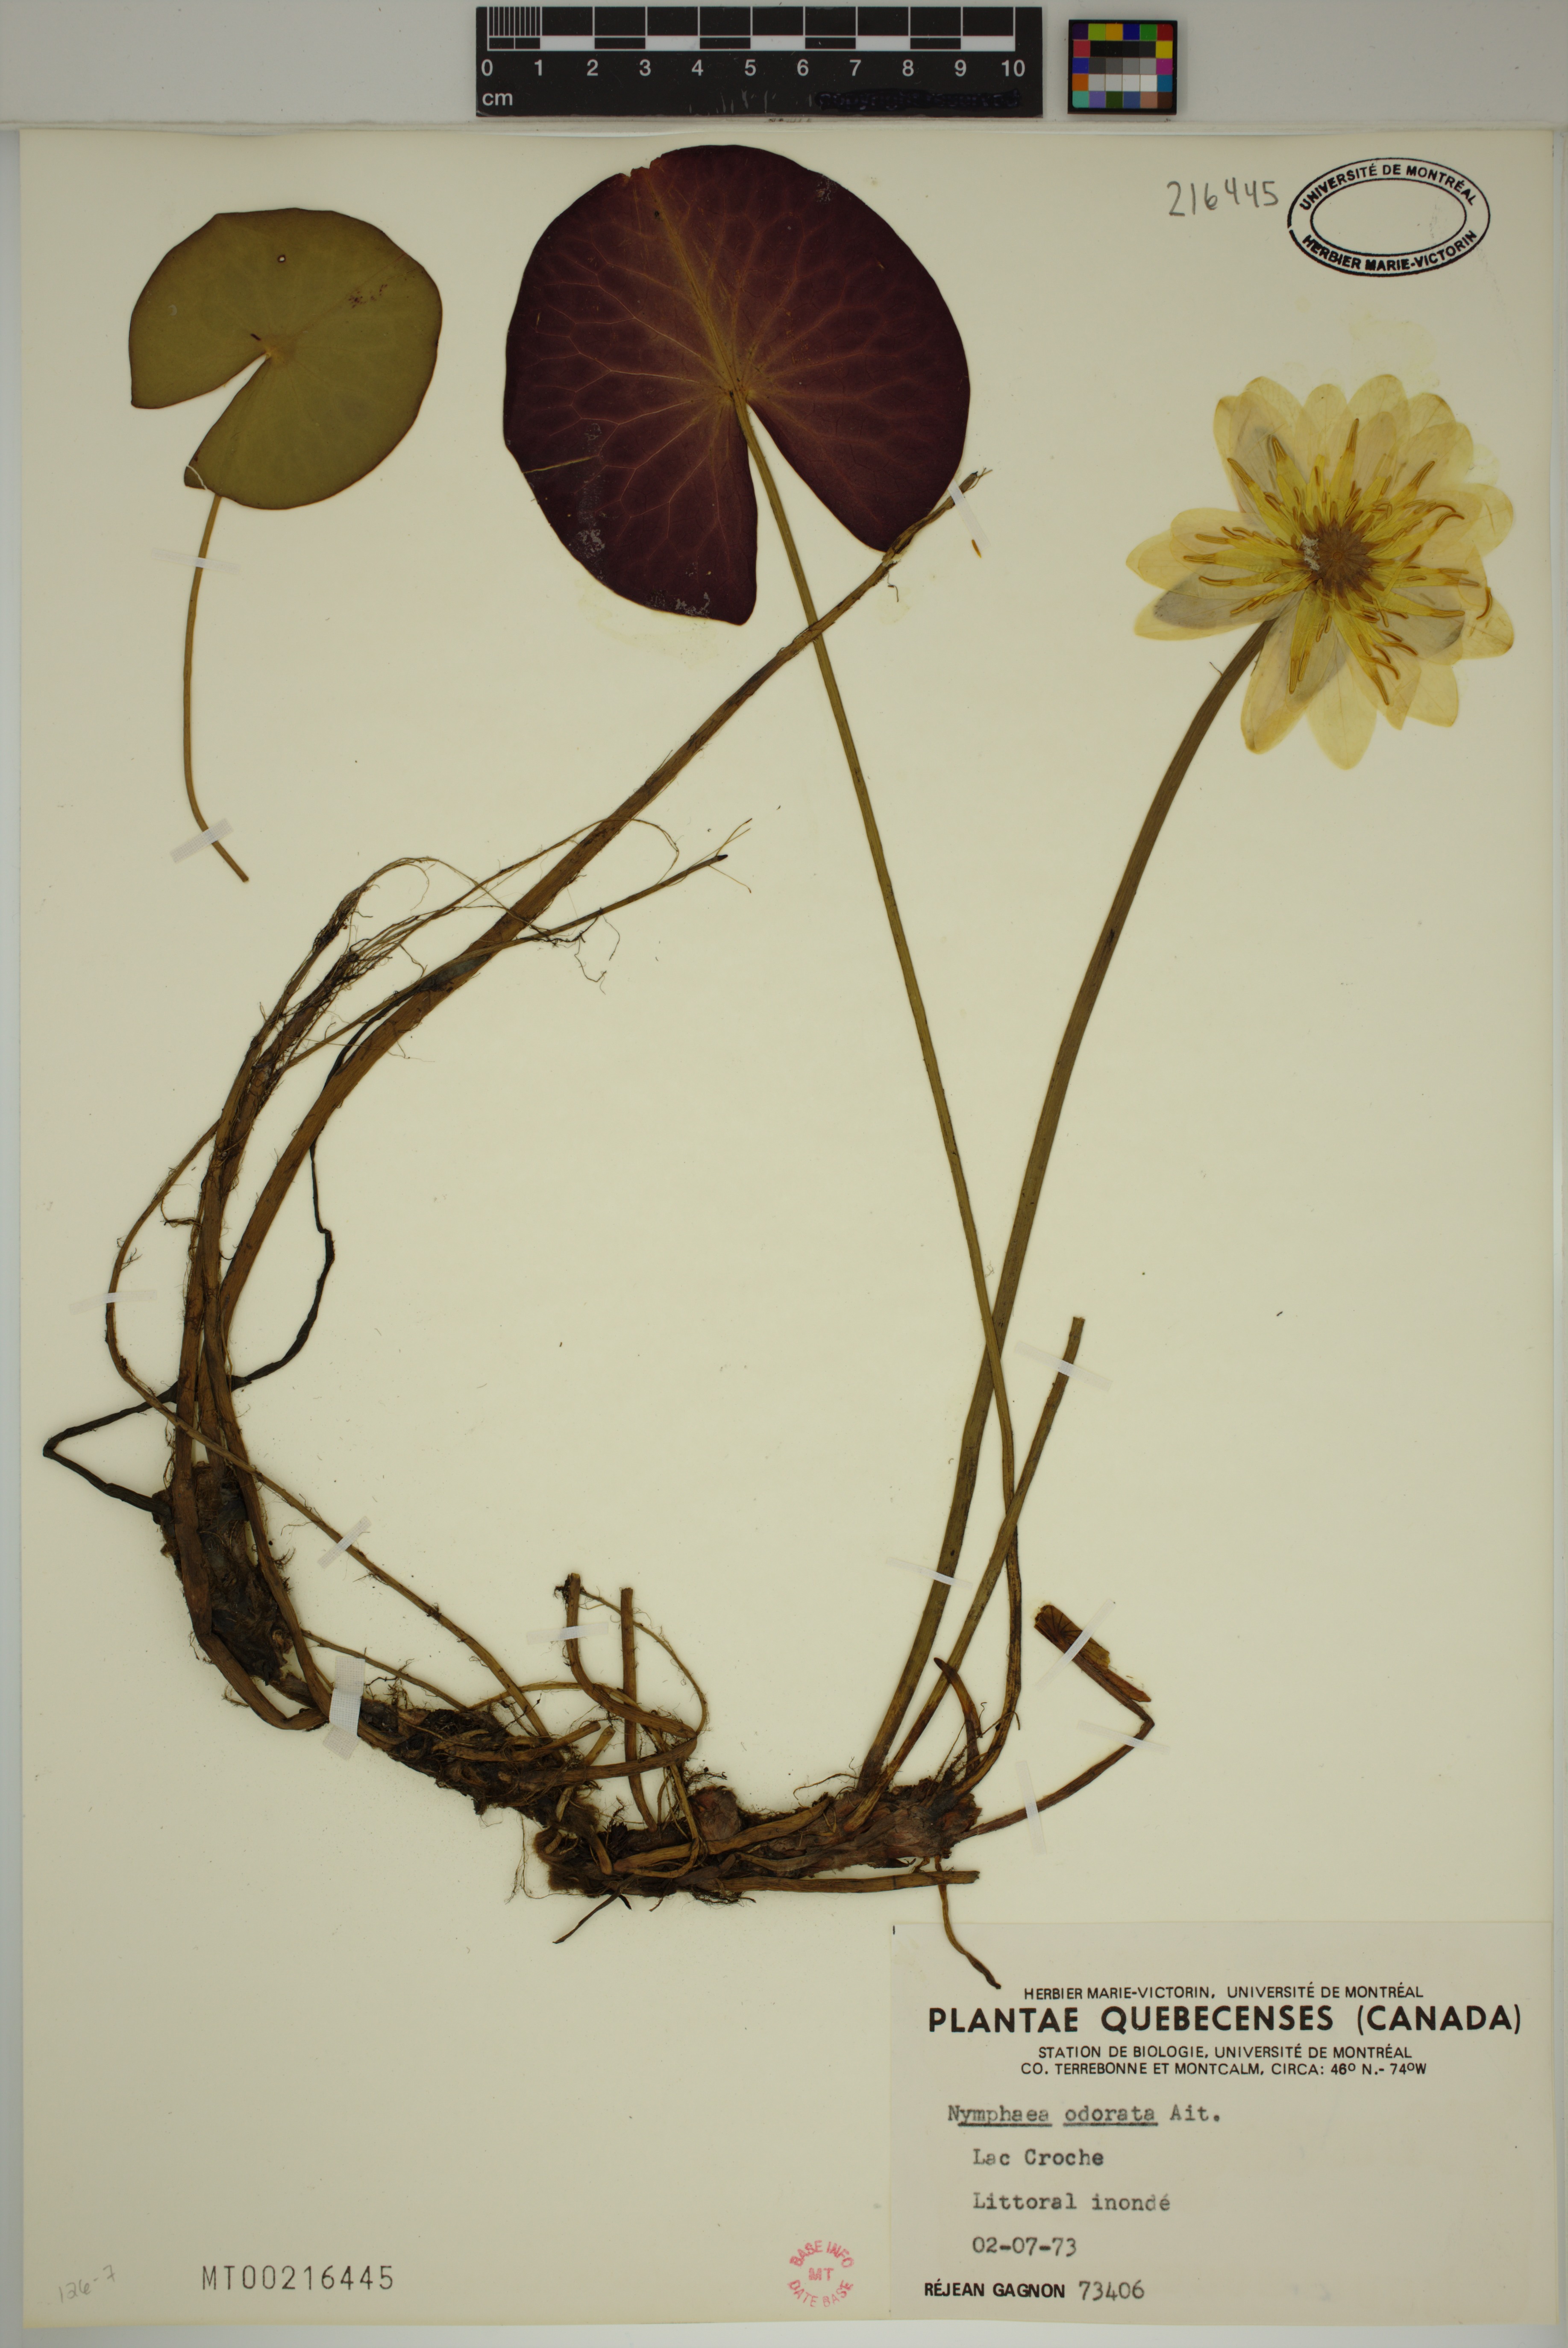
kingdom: Plantae
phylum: Tracheophyta
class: Magnoliopsida
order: Nymphaeales
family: Nymphaeaceae
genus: Nymphaea
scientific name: Nymphaea odorata
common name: Fragrant water-lily
